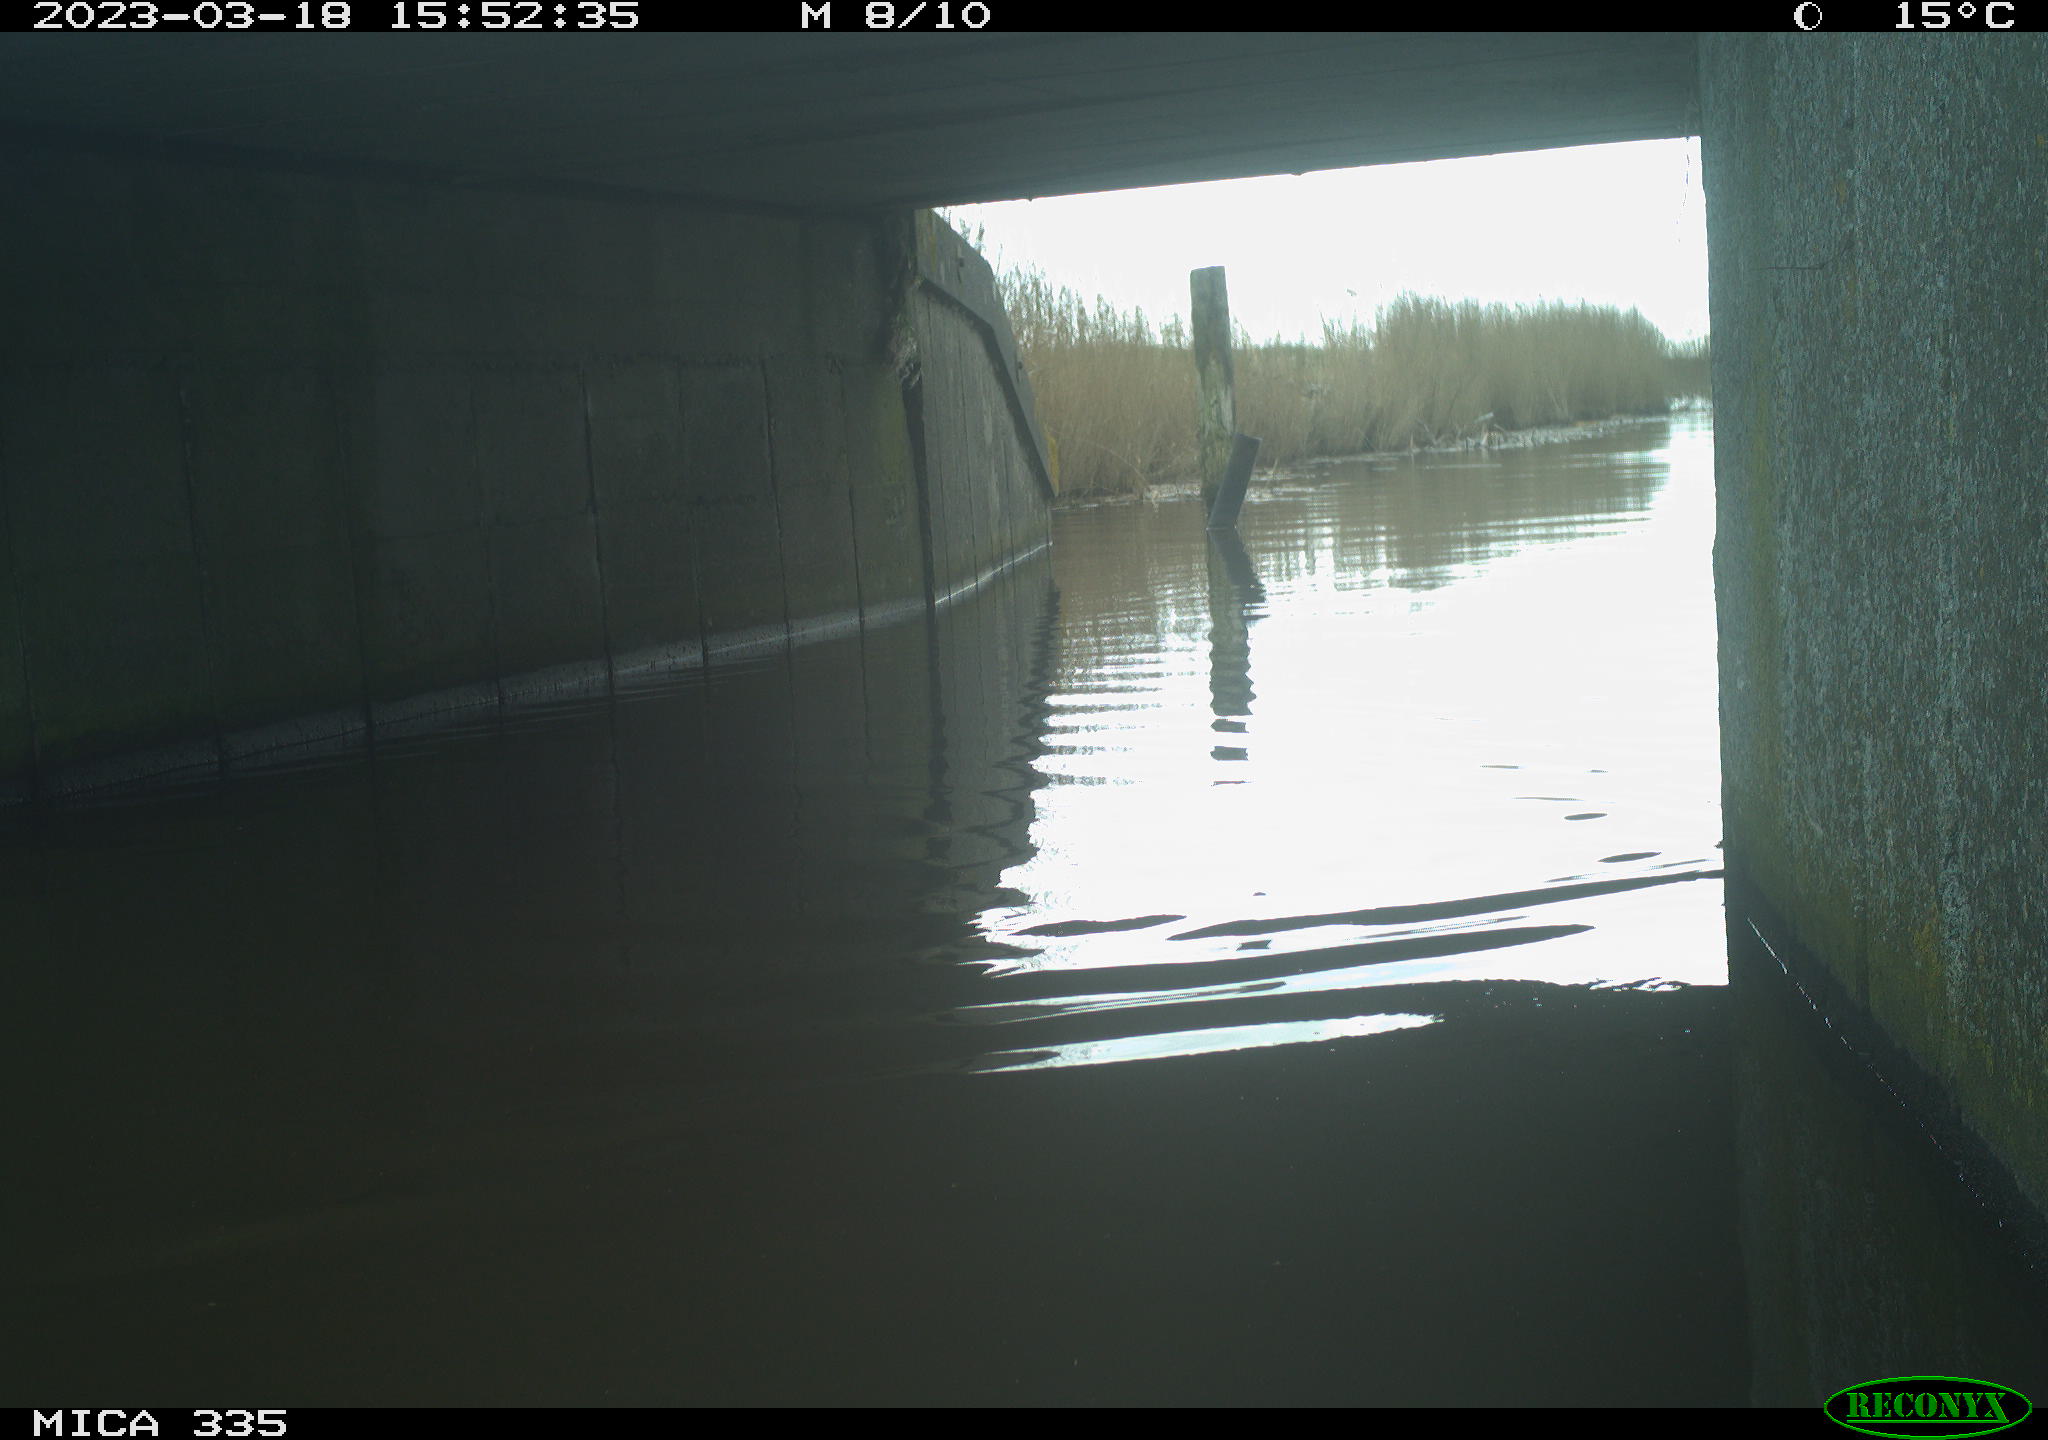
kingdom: Animalia
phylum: Chordata
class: Aves
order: Anseriformes
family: Anatidae
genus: Anas
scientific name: Anas
